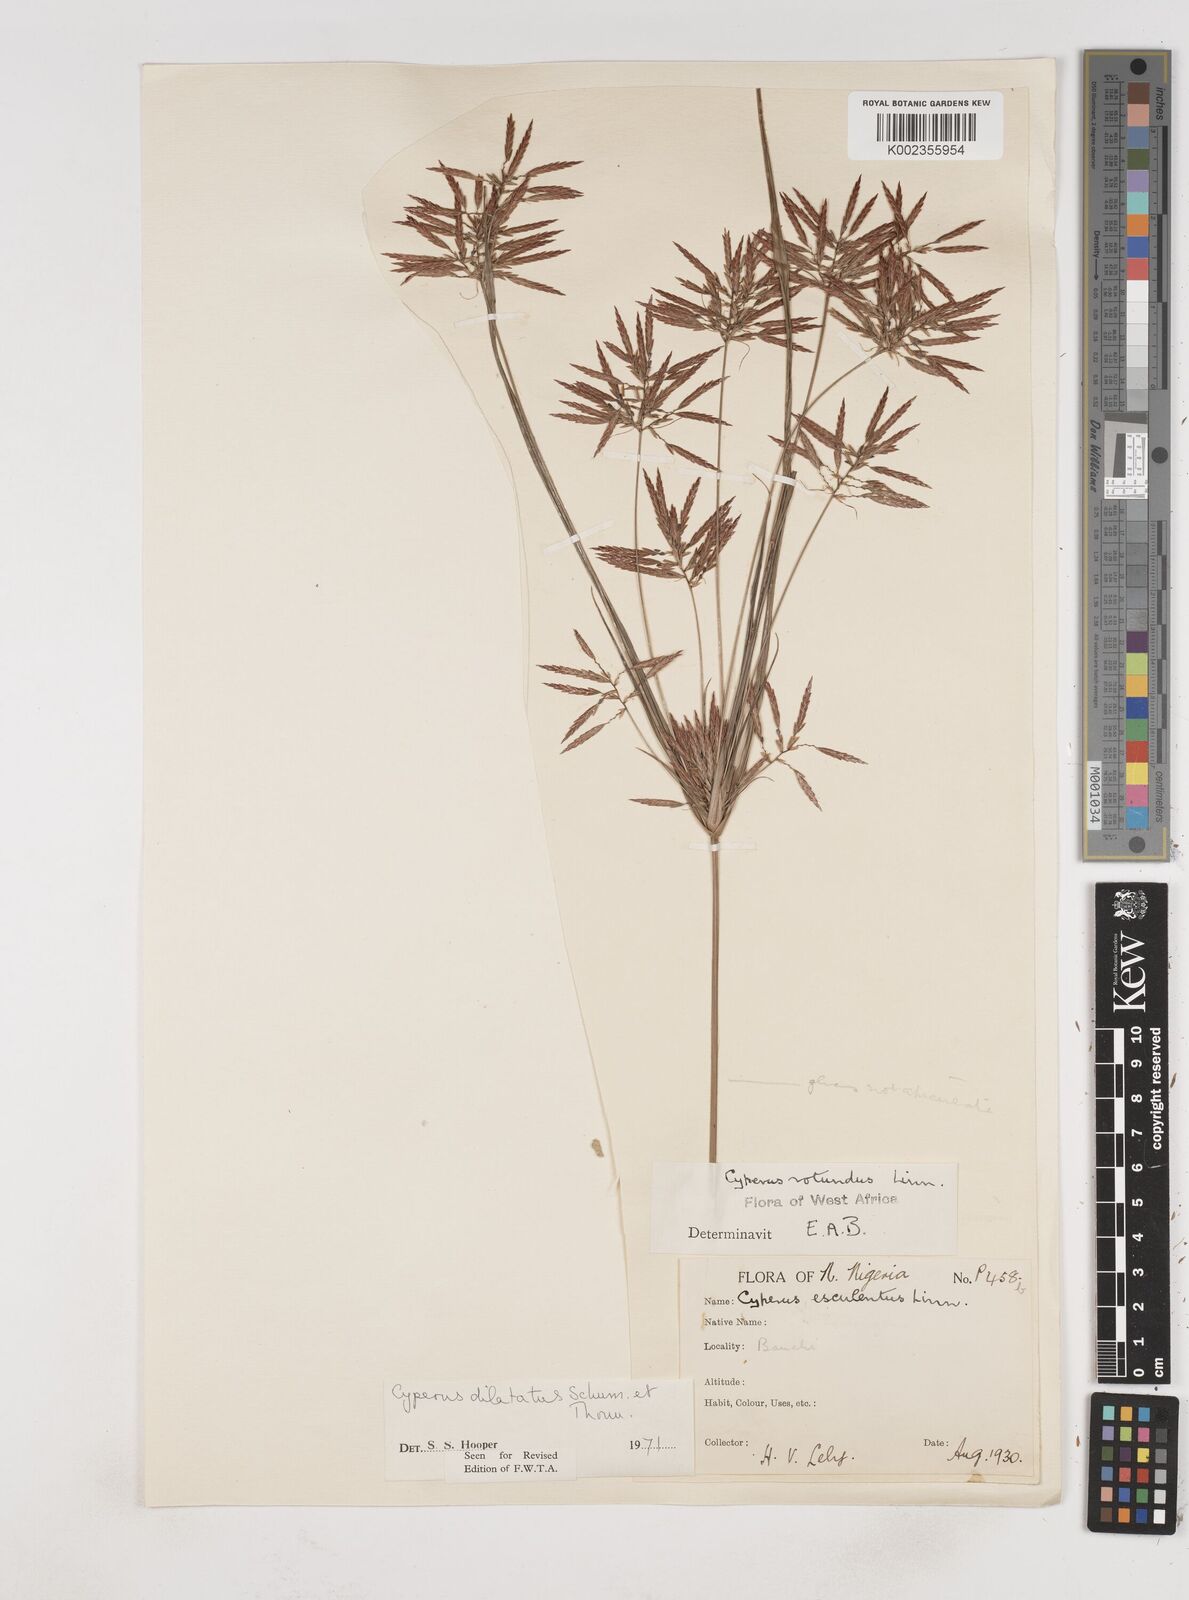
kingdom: Plantae
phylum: Tracheophyta
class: Liliopsida
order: Poales
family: Cyperaceae
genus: Cyperus
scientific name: Cyperus dilatatus
